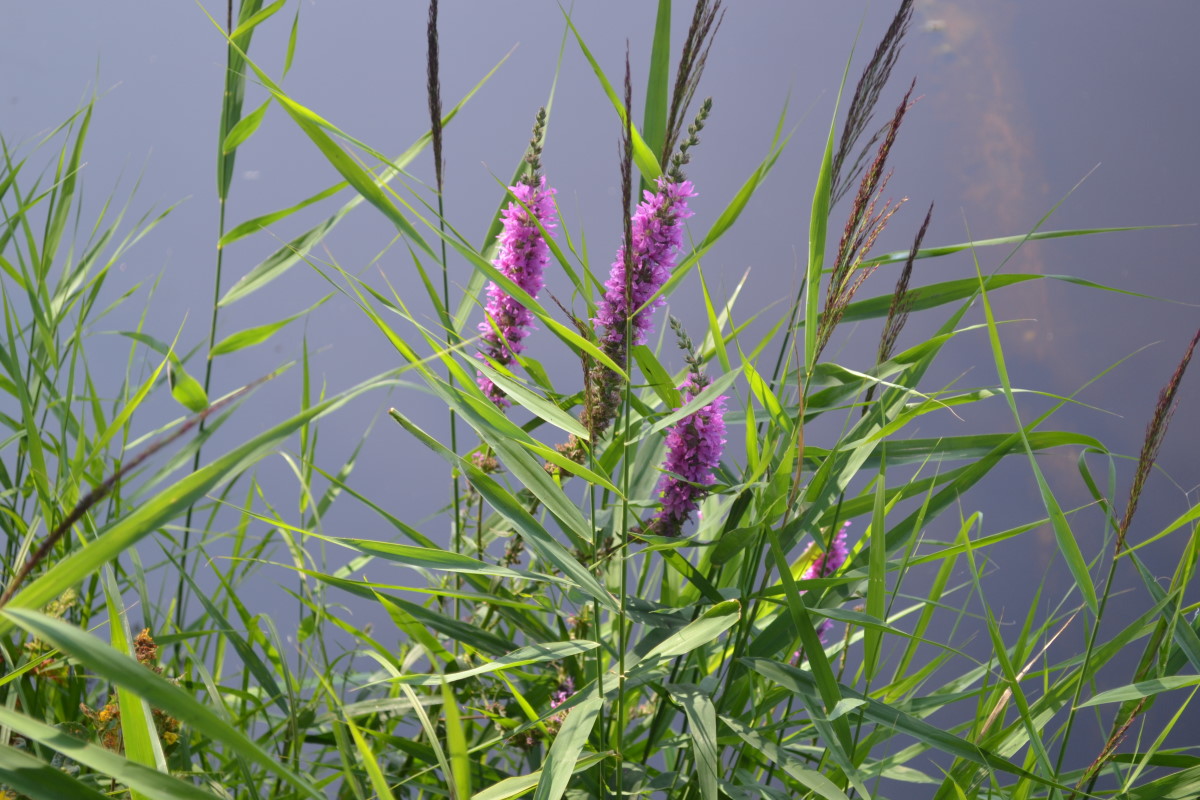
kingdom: Plantae
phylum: Tracheophyta
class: Magnoliopsida
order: Myrtales
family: Lythraceae
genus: Lythrum
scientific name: Lythrum salicaria
